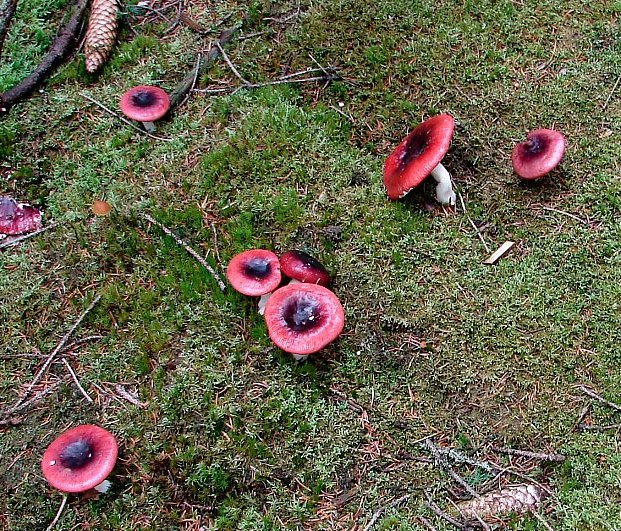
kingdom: Fungi
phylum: Basidiomycota
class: Agaricomycetes
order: Russulales
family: Russulaceae
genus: Russula
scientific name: Russula atrorubens
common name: sortrød skørhat
